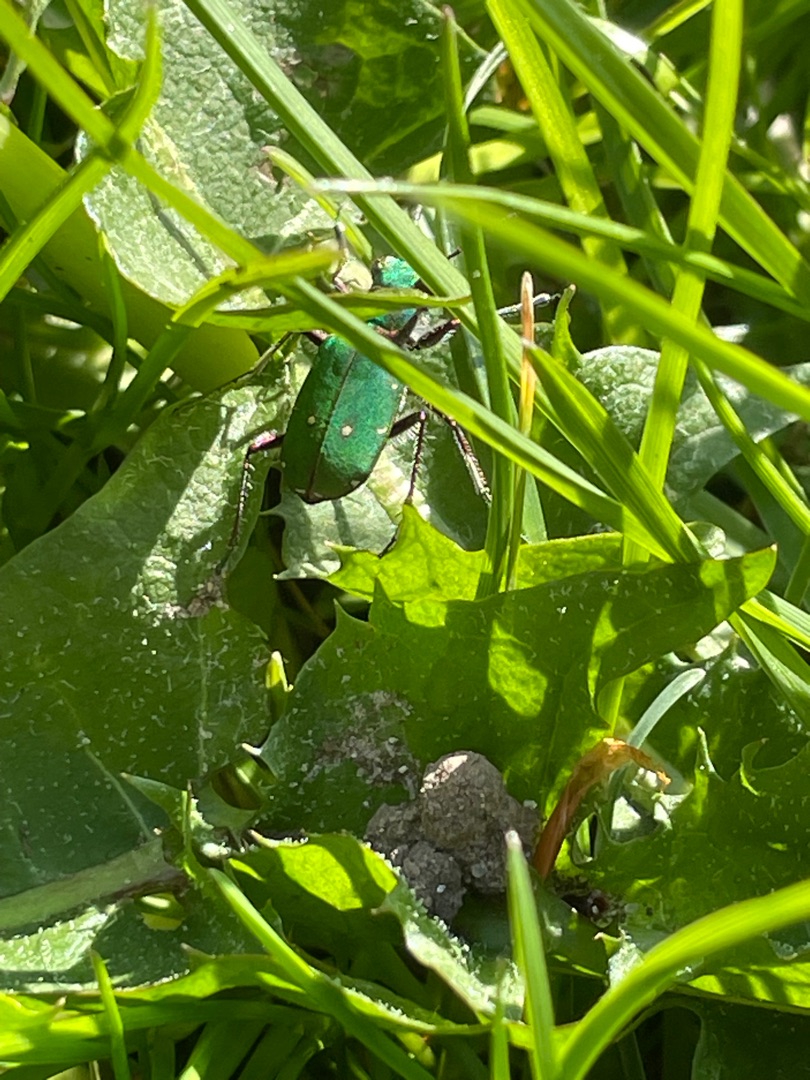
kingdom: Animalia
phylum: Arthropoda
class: Insecta
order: Coleoptera
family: Carabidae
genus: Cicindela
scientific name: Cicindela campestris
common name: Grøn sandspringer
